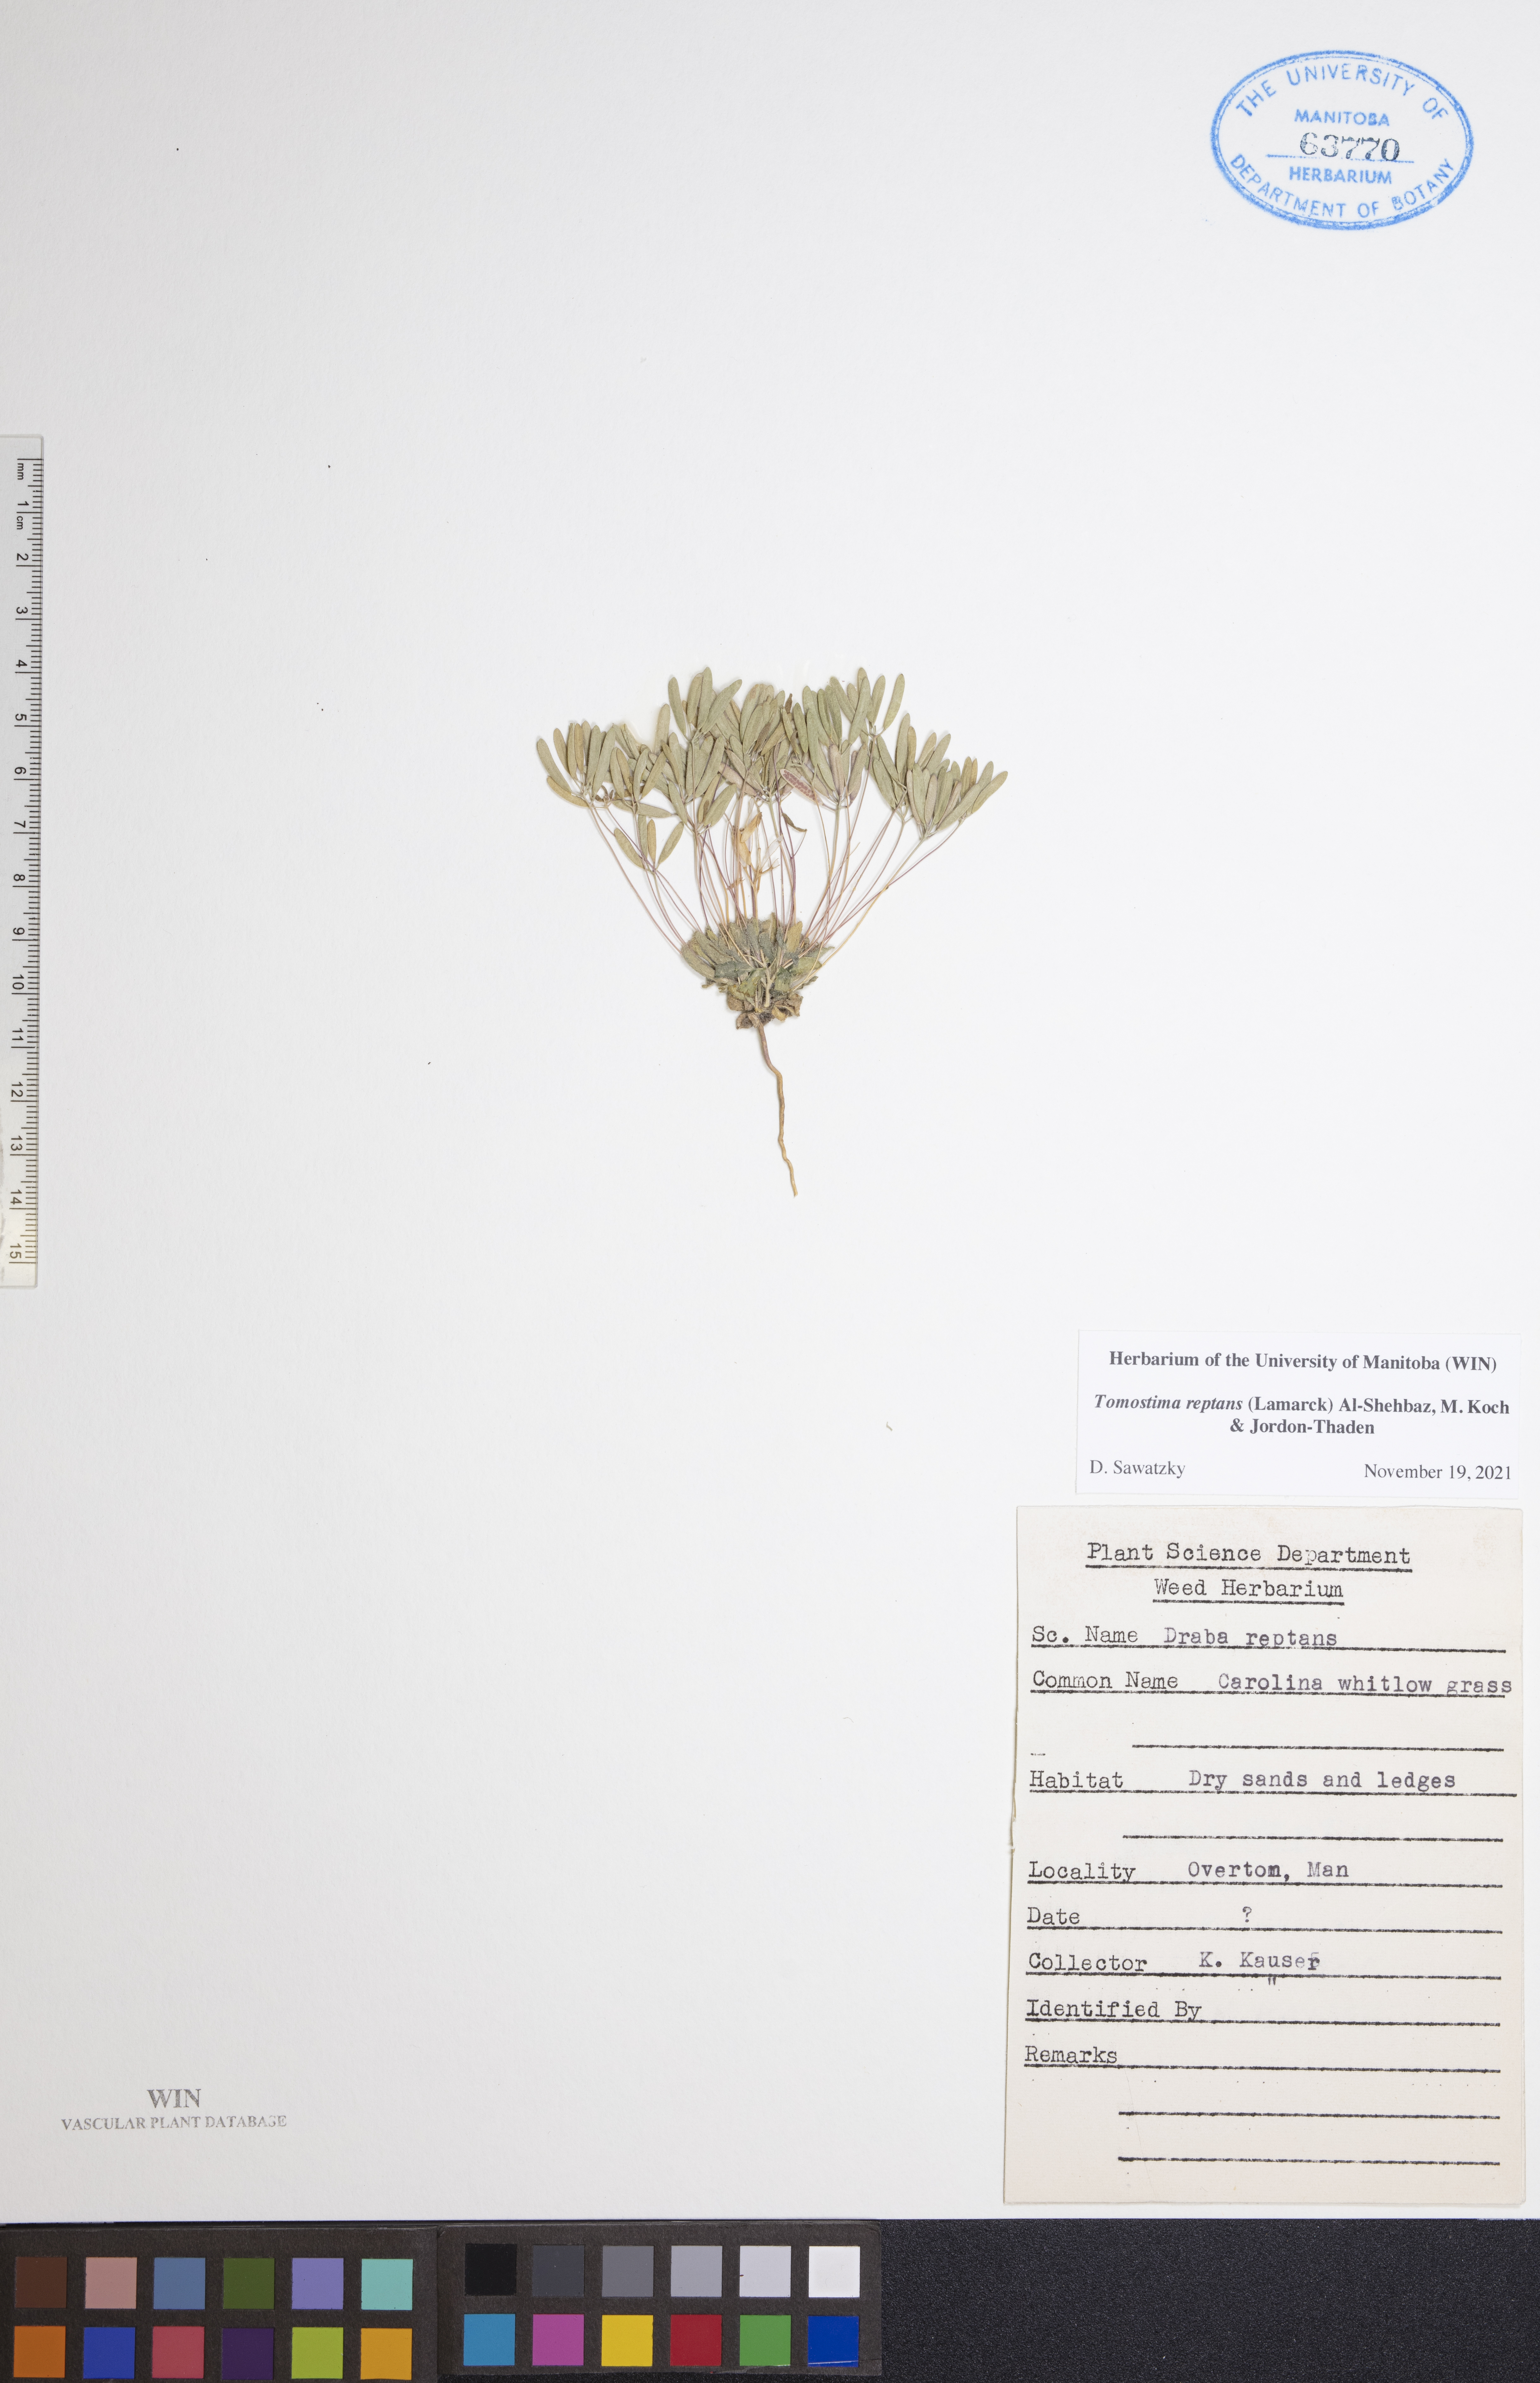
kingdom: Plantae
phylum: Tracheophyta
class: Magnoliopsida
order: Brassicales
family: Brassicaceae
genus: Tomostima
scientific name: Tomostima reptans
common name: Carolina draba
